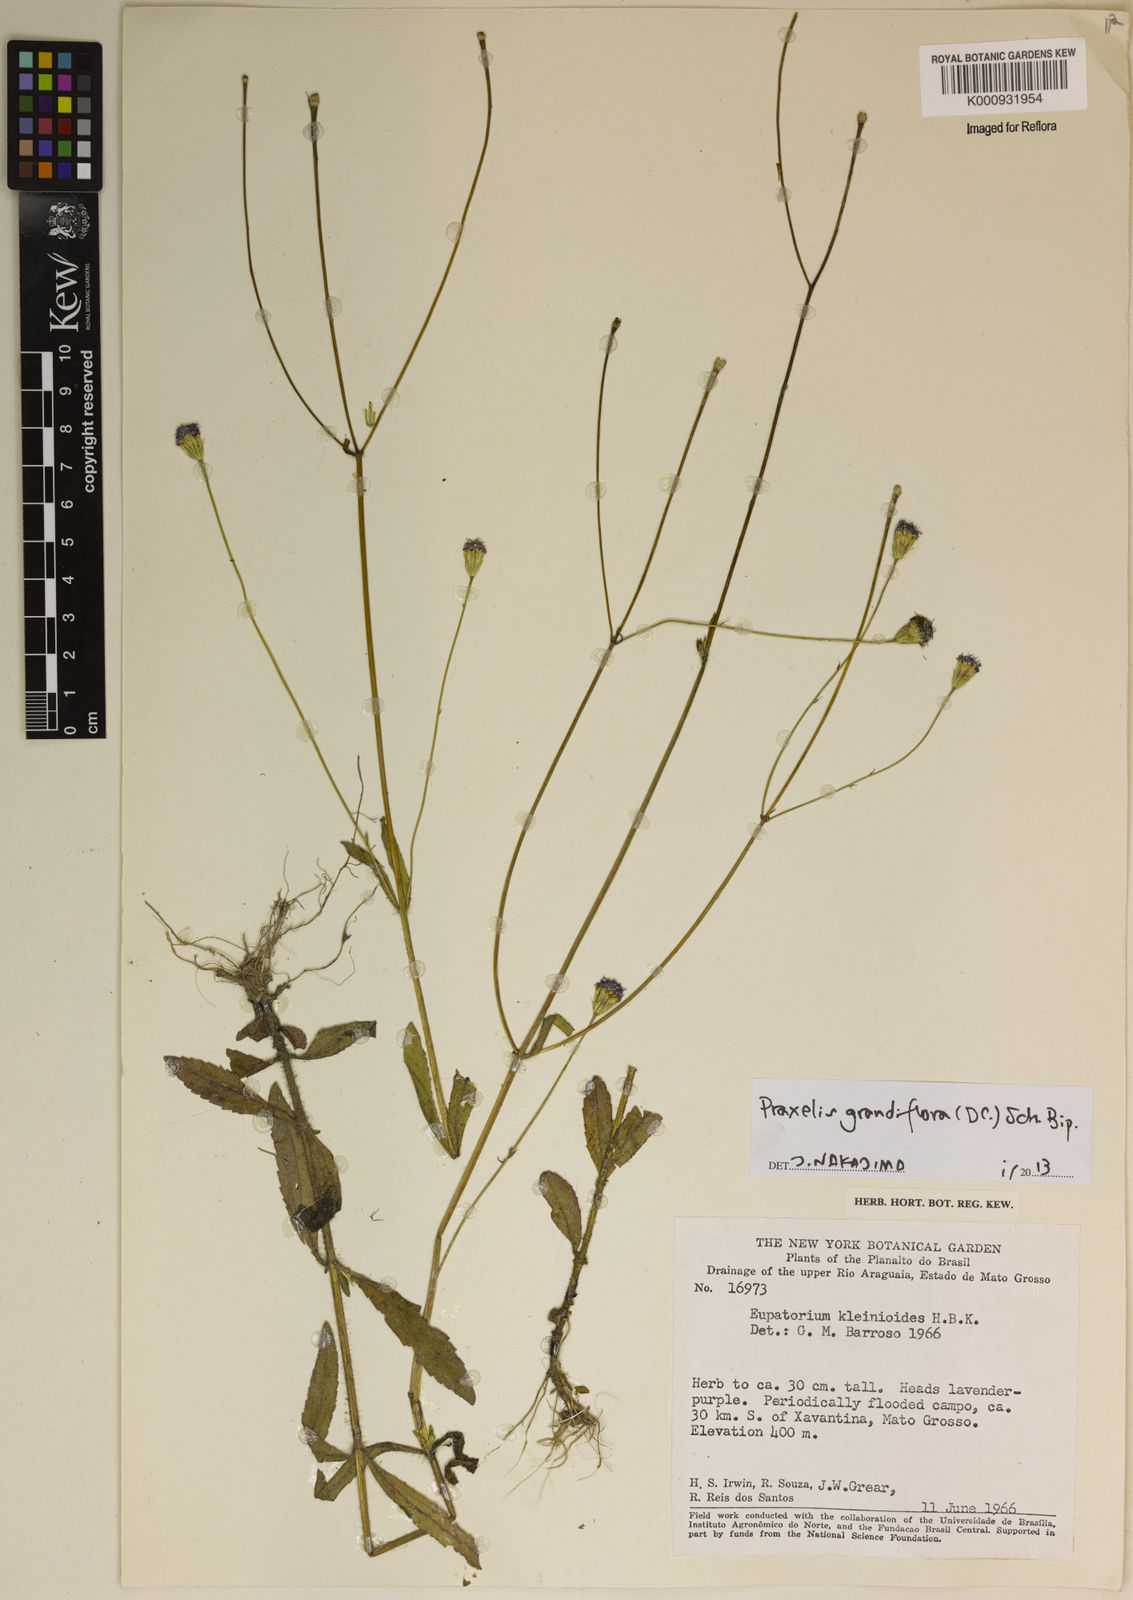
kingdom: Plantae
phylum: Tracheophyta
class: Magnoliopsida
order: Asterales
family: Asteraceae
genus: Praxelis
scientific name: Praxelis grandiflora
